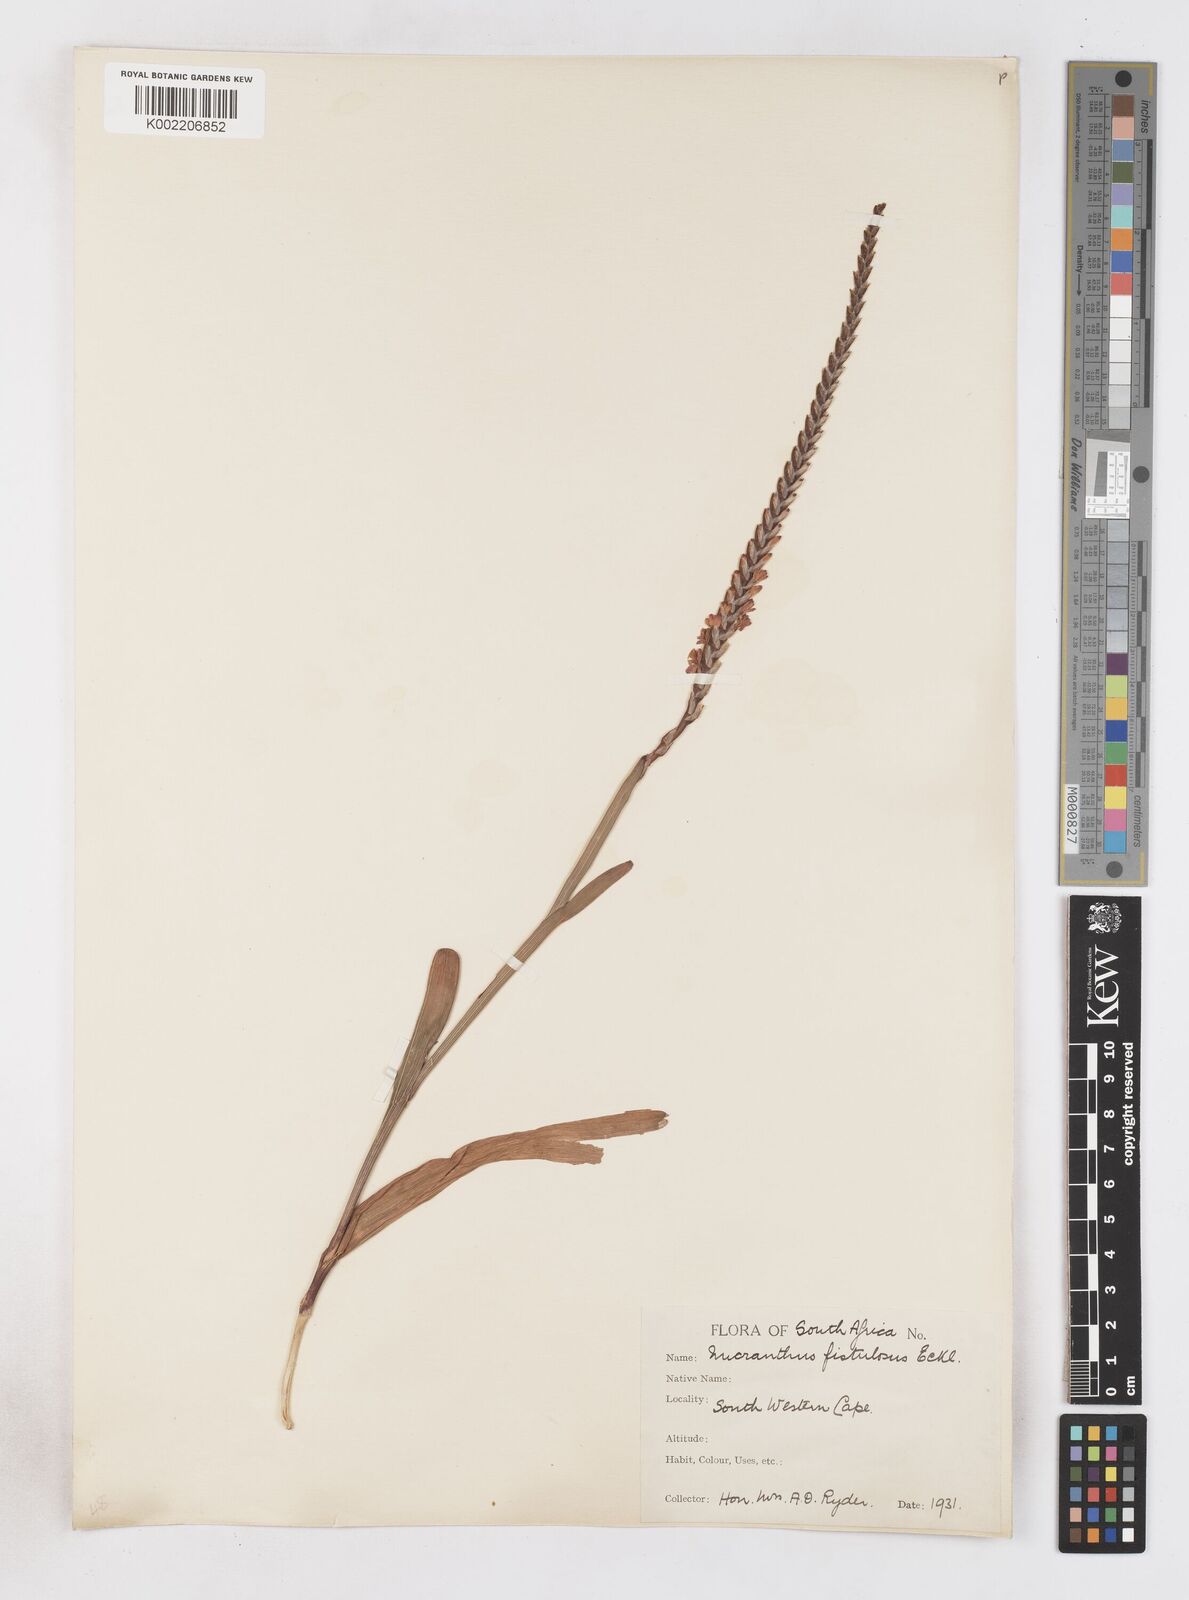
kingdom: Plantae
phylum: Tracheophyta
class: Liliopsida
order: Asparagales
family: Iridaceae
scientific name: Iridaceae
